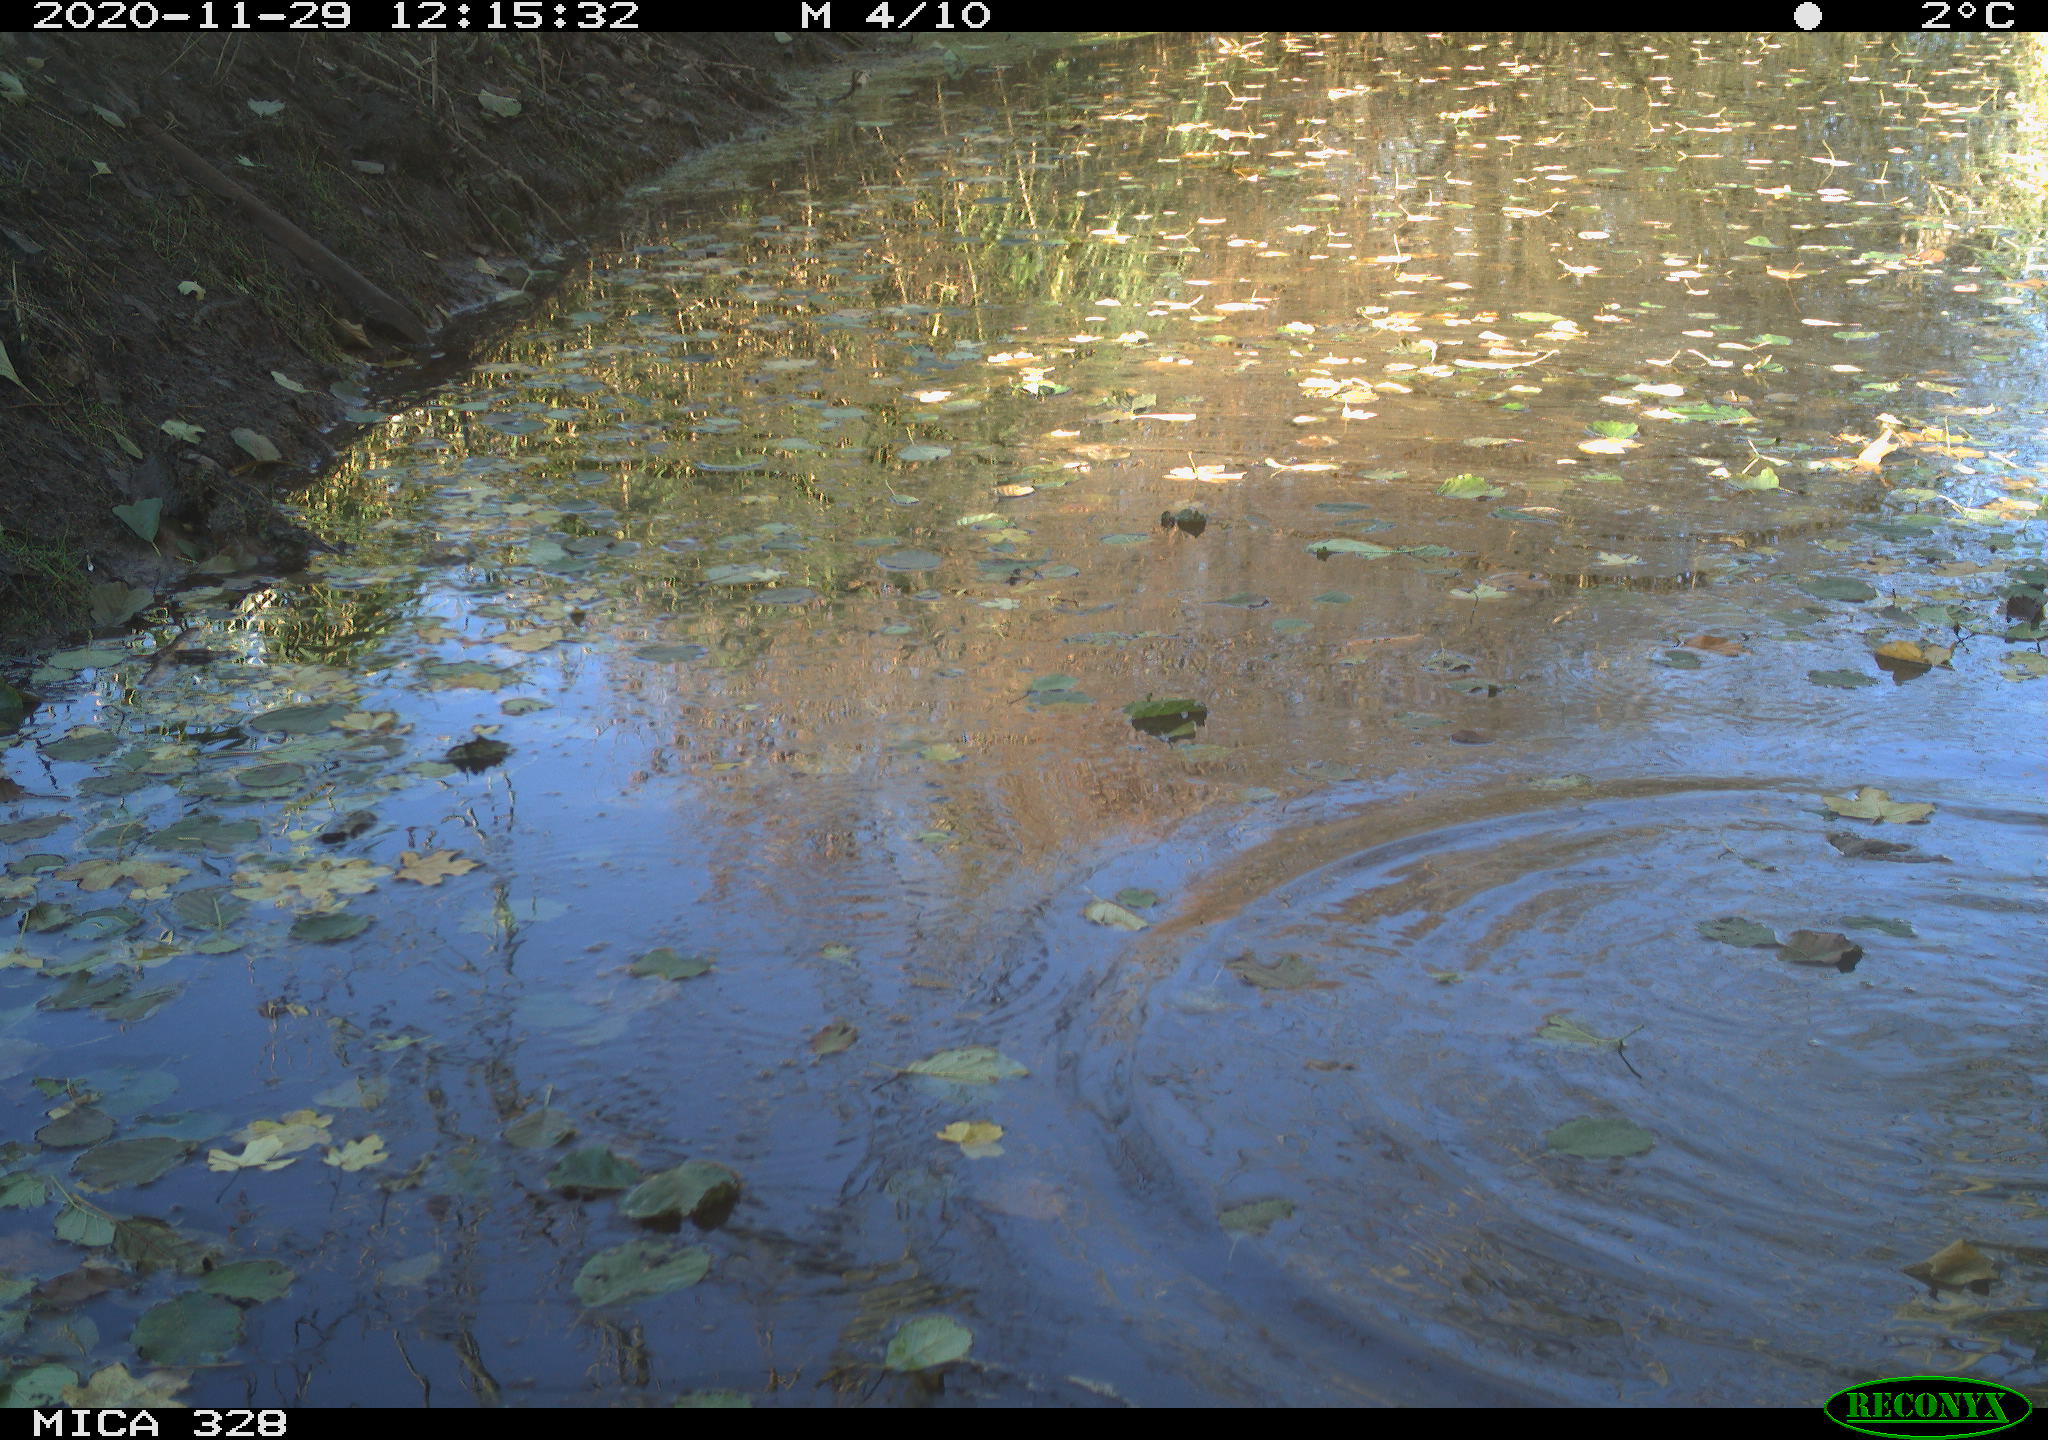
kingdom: Animalia
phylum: Chordata
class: Aves
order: Pelecaniformes
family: Ardeidae
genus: Ardea
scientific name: Ardea alba
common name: Great egret
